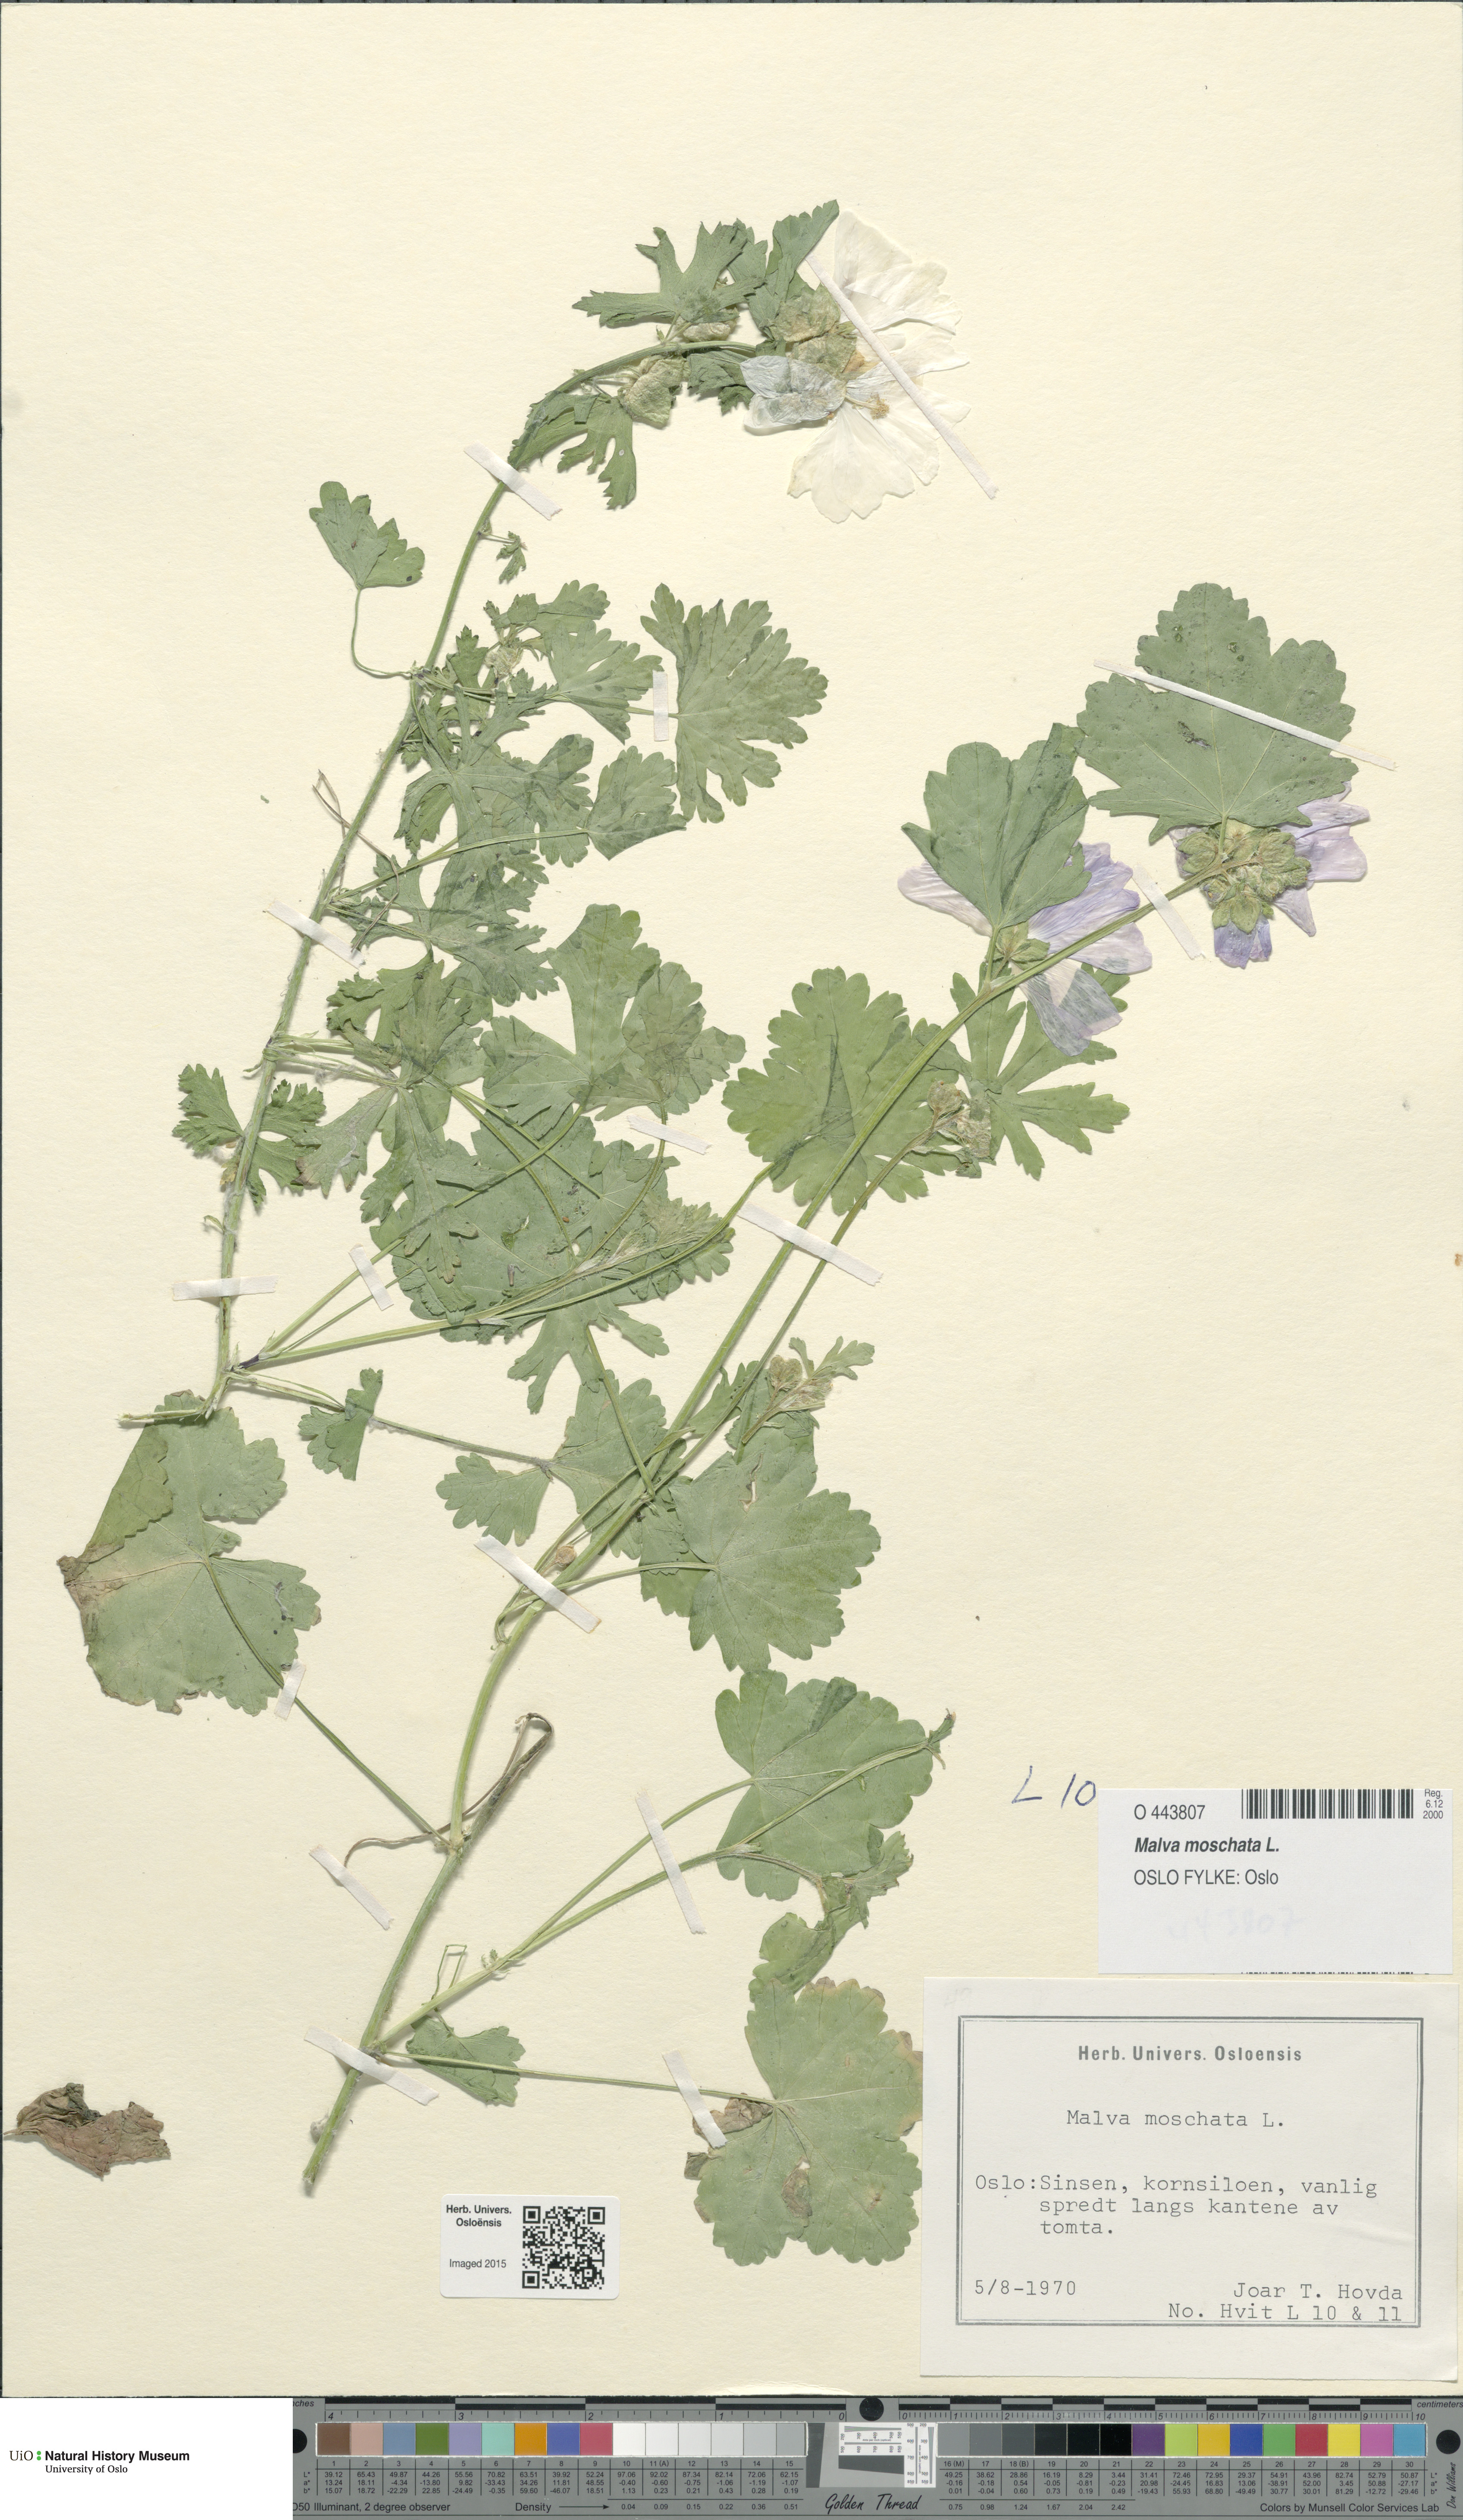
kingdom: Plantae
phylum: Tracheophyta
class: Magnoliopsida
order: Malvales
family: Malvaceae
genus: Malva
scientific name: Malva moschata
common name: Musk mallow
